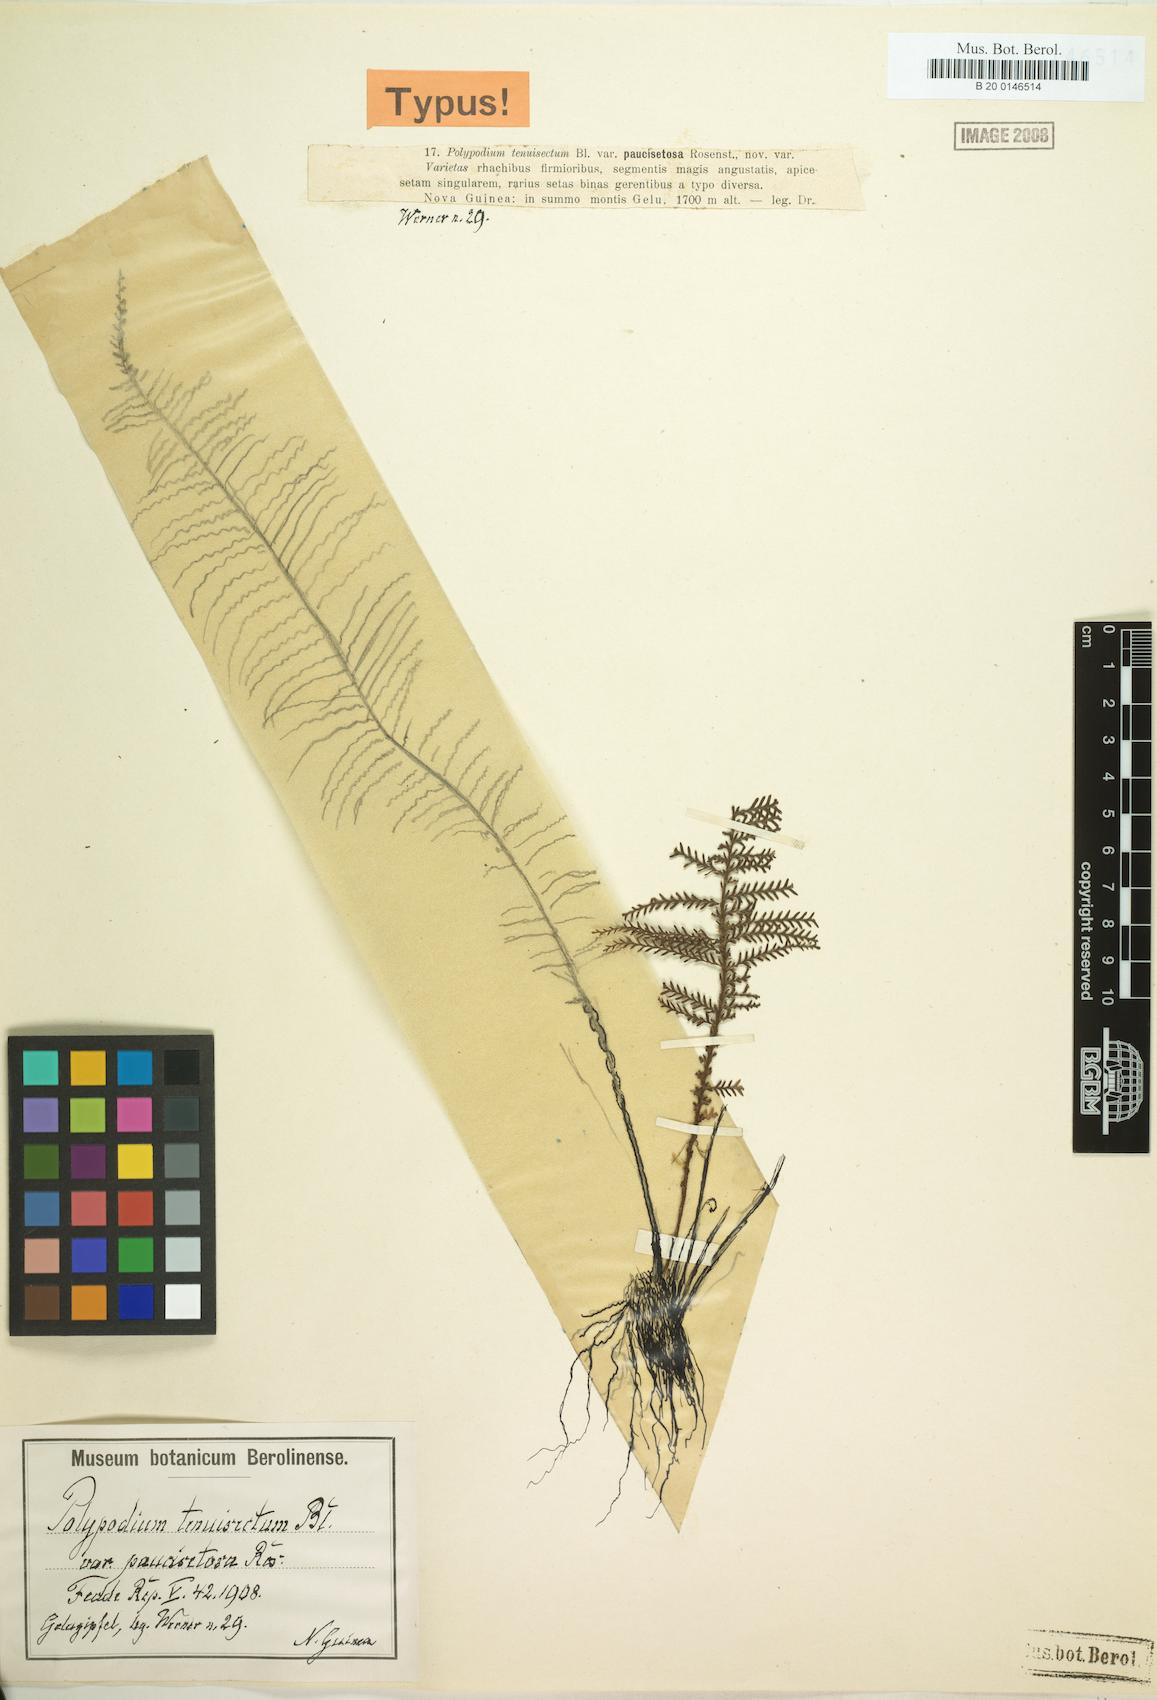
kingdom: Plantae
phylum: Tracheophyta
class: Polypodiopsida
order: Polypodiales
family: Polypodiaceae
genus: Oreogrammitis
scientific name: Oreogrammitis tenuisecta
